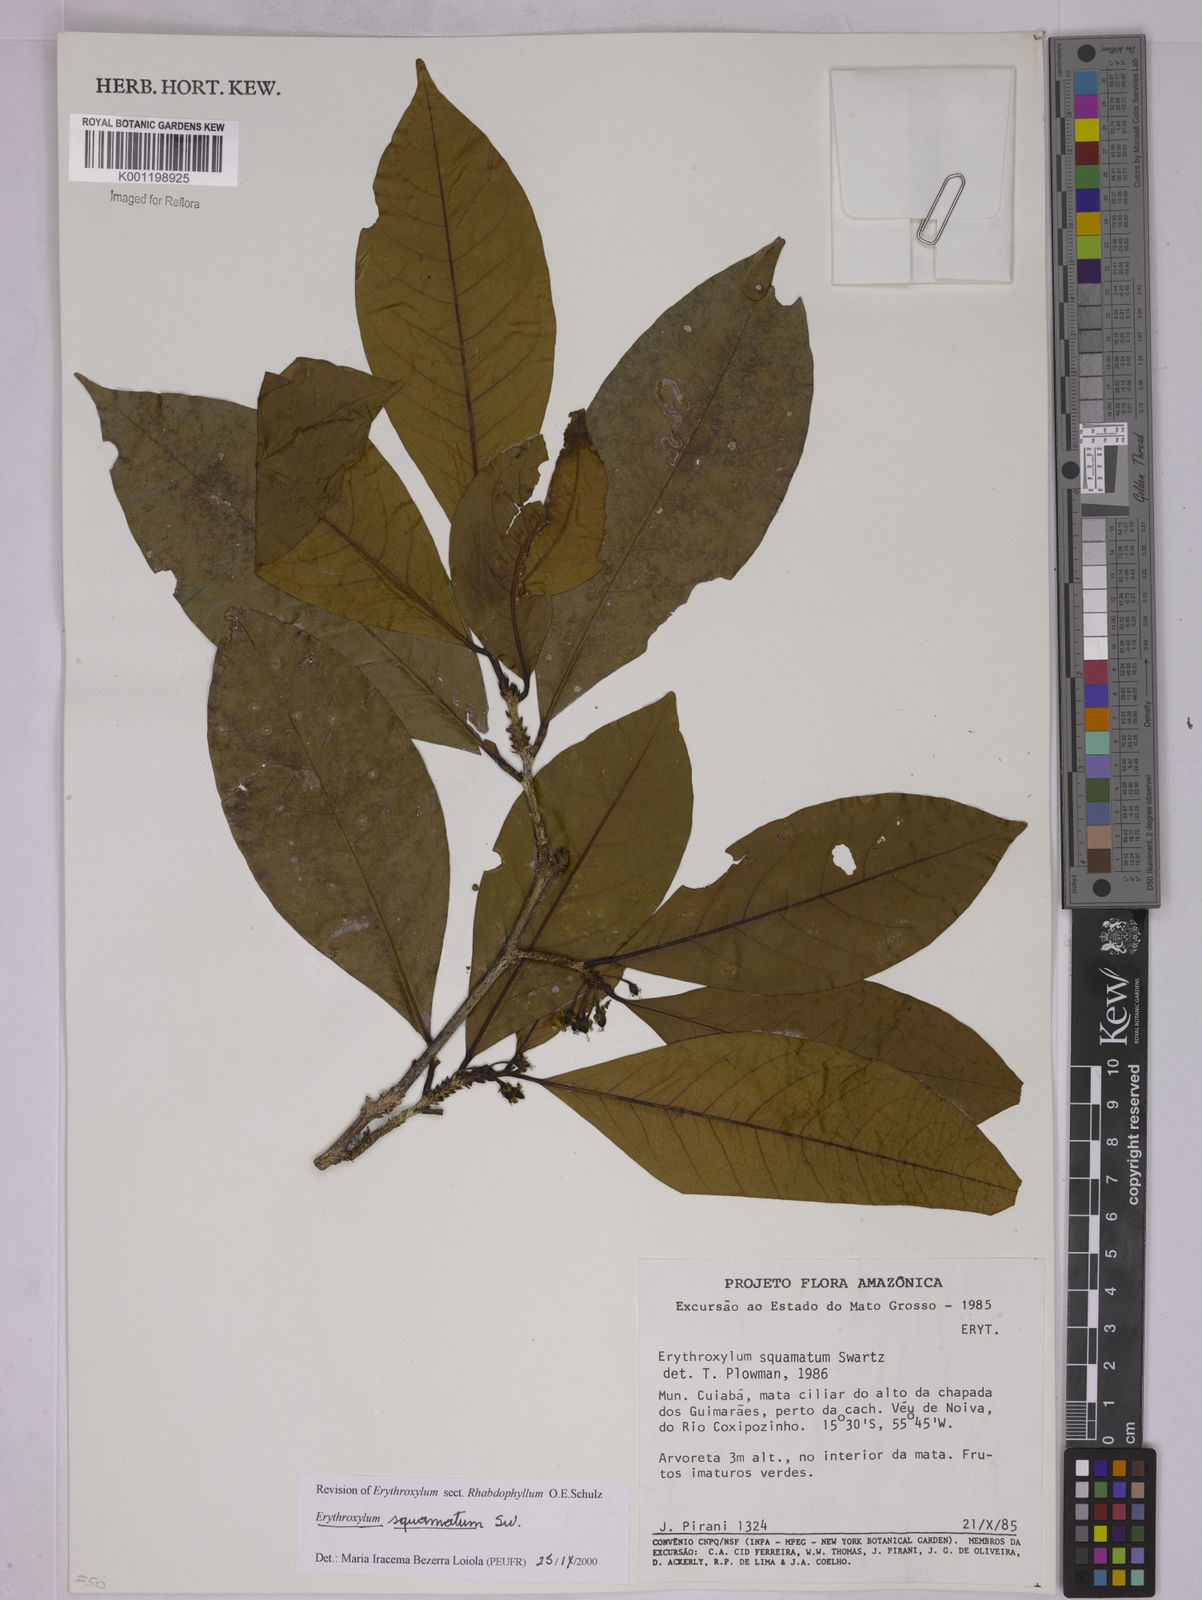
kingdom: Plantae
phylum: Tracheophyta
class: Magnoliopsida
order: Malpighiales
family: Erythroxylaceae
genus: Erythroxylum
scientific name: Erythroxylum squamatum
